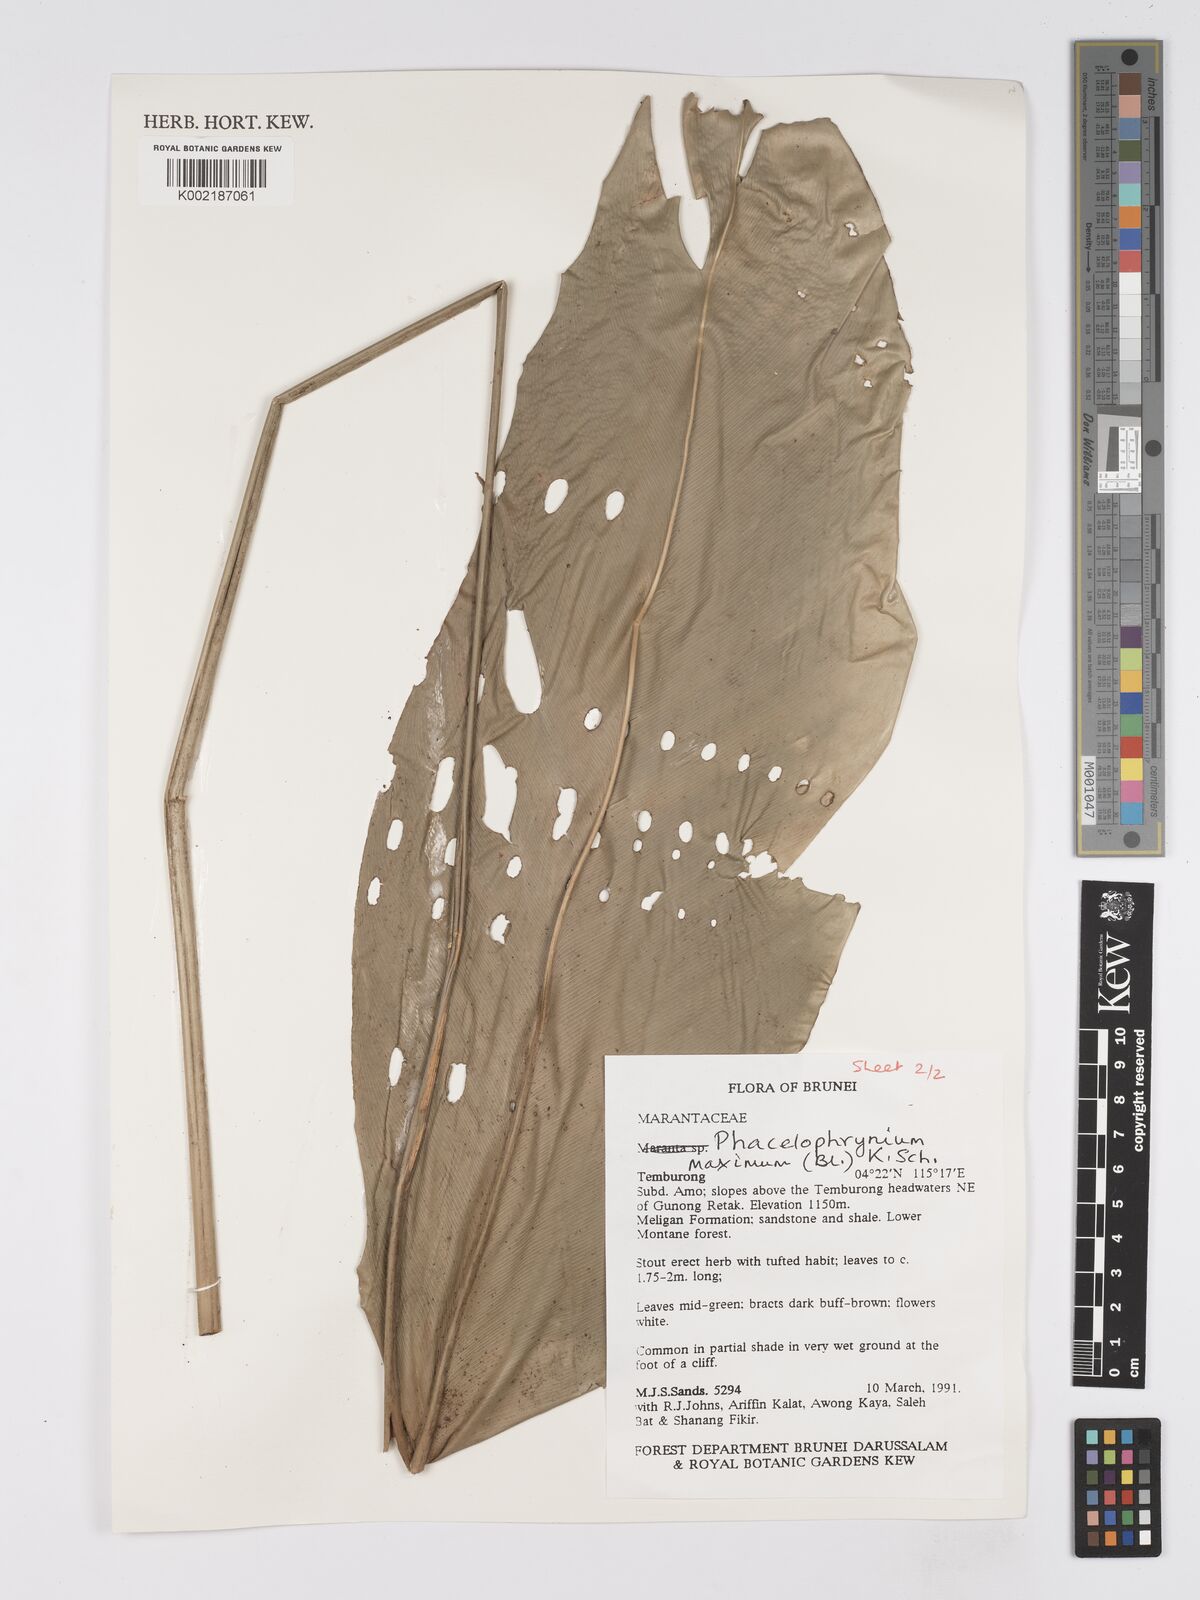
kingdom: Plantae
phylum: Tracheophyta
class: Liliopsida
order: Zingiberales
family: Marantaceae
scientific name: Marantaceae
